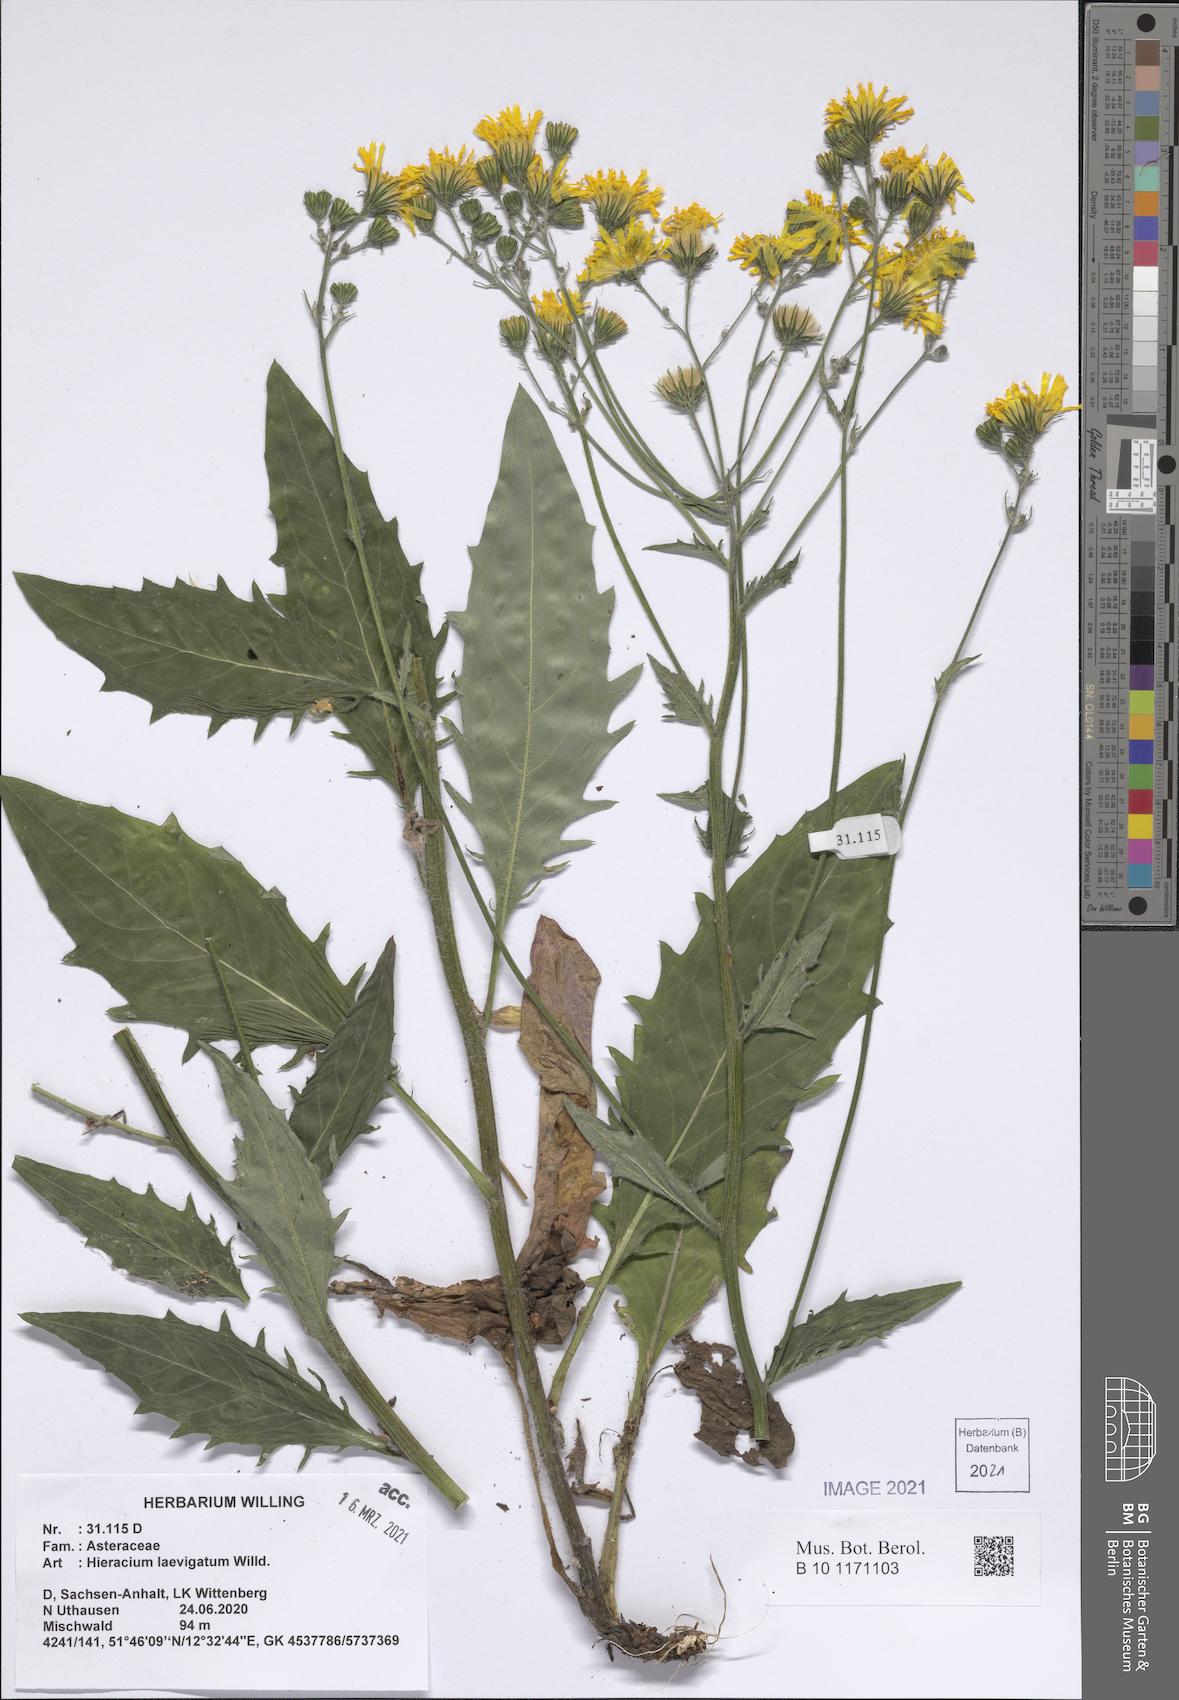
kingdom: Plantae
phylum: Tracheophyta
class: Magnoliopsida
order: Asterales
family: Asteraceae
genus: Hieracium
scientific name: Hieracium laevigatum
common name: Smooth hawkweed
